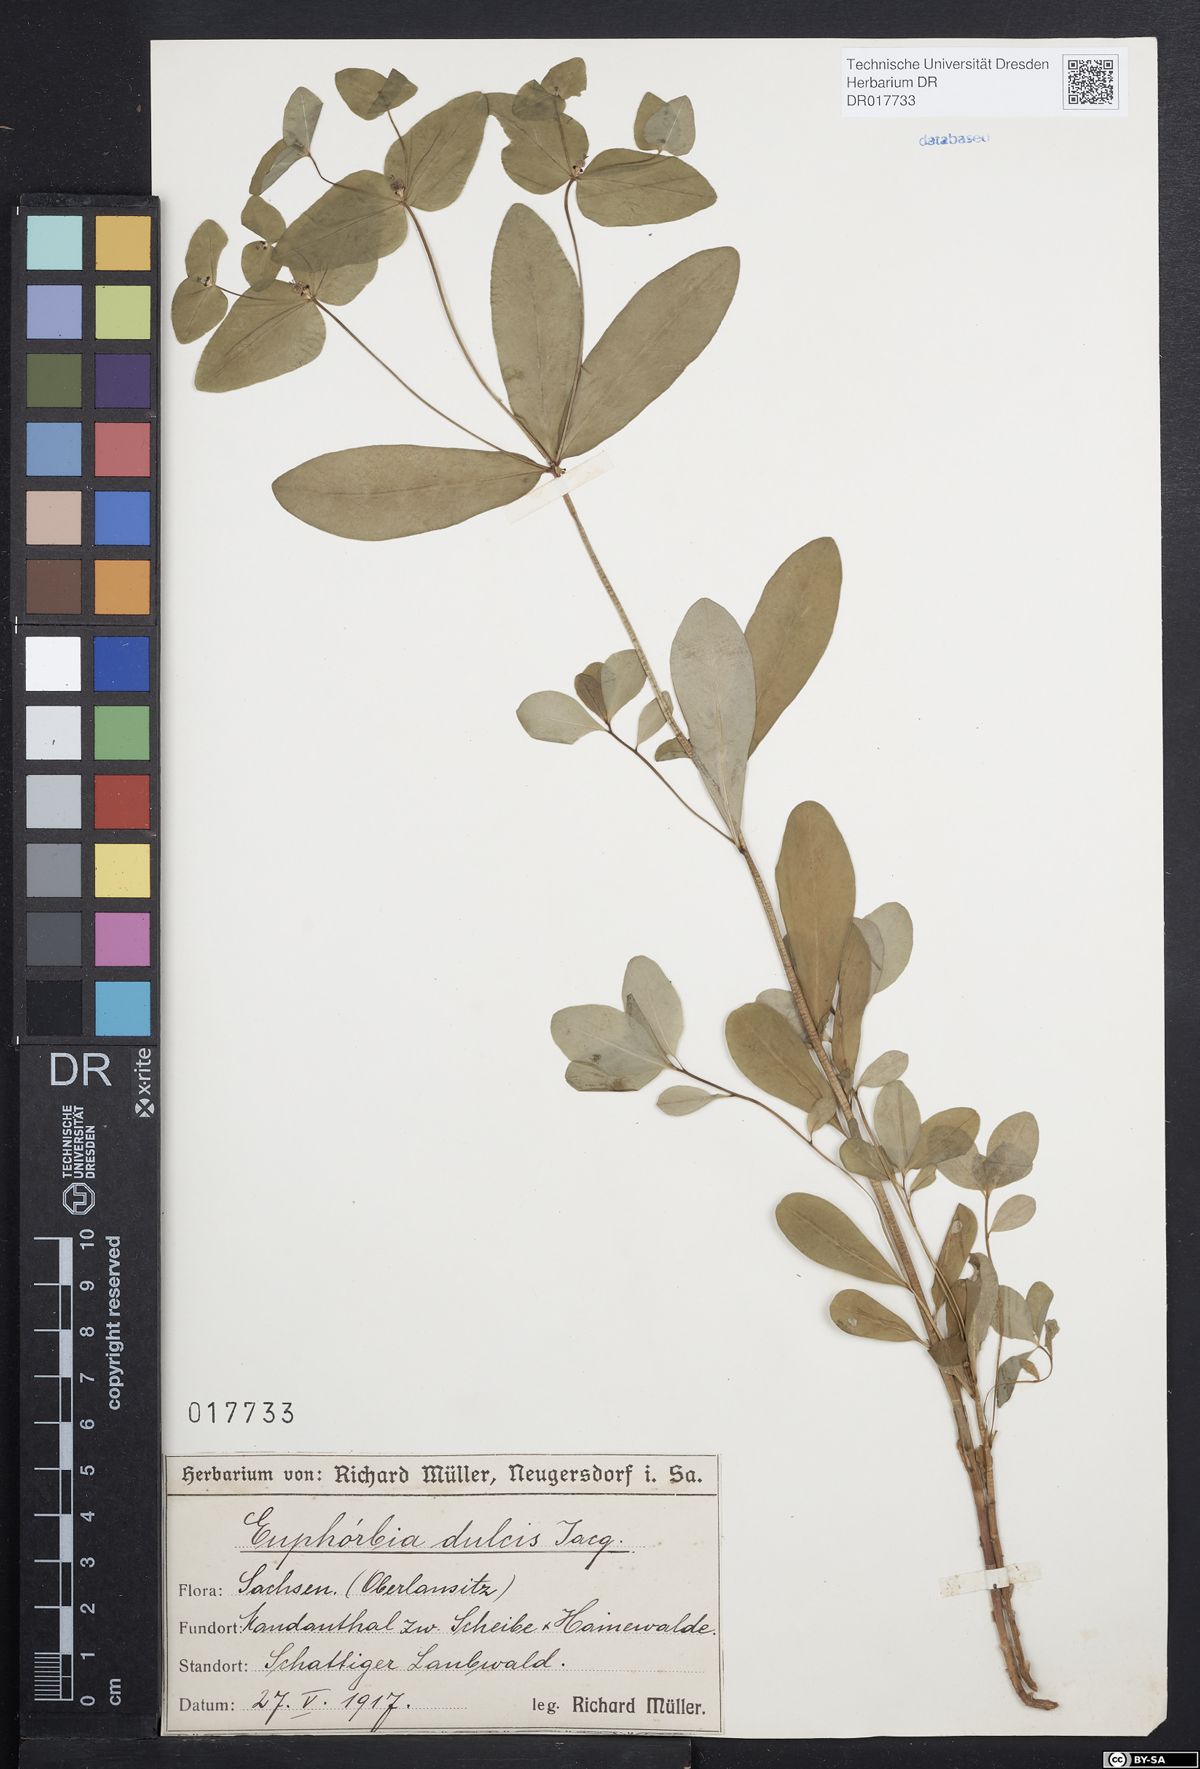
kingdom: Plantae
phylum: Tracheophyta
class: Magnoliopsida
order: Malpighiales
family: Euphorbiaceae
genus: Euphorbia
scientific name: Euphorbia dulcis
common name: Sweet spurge
